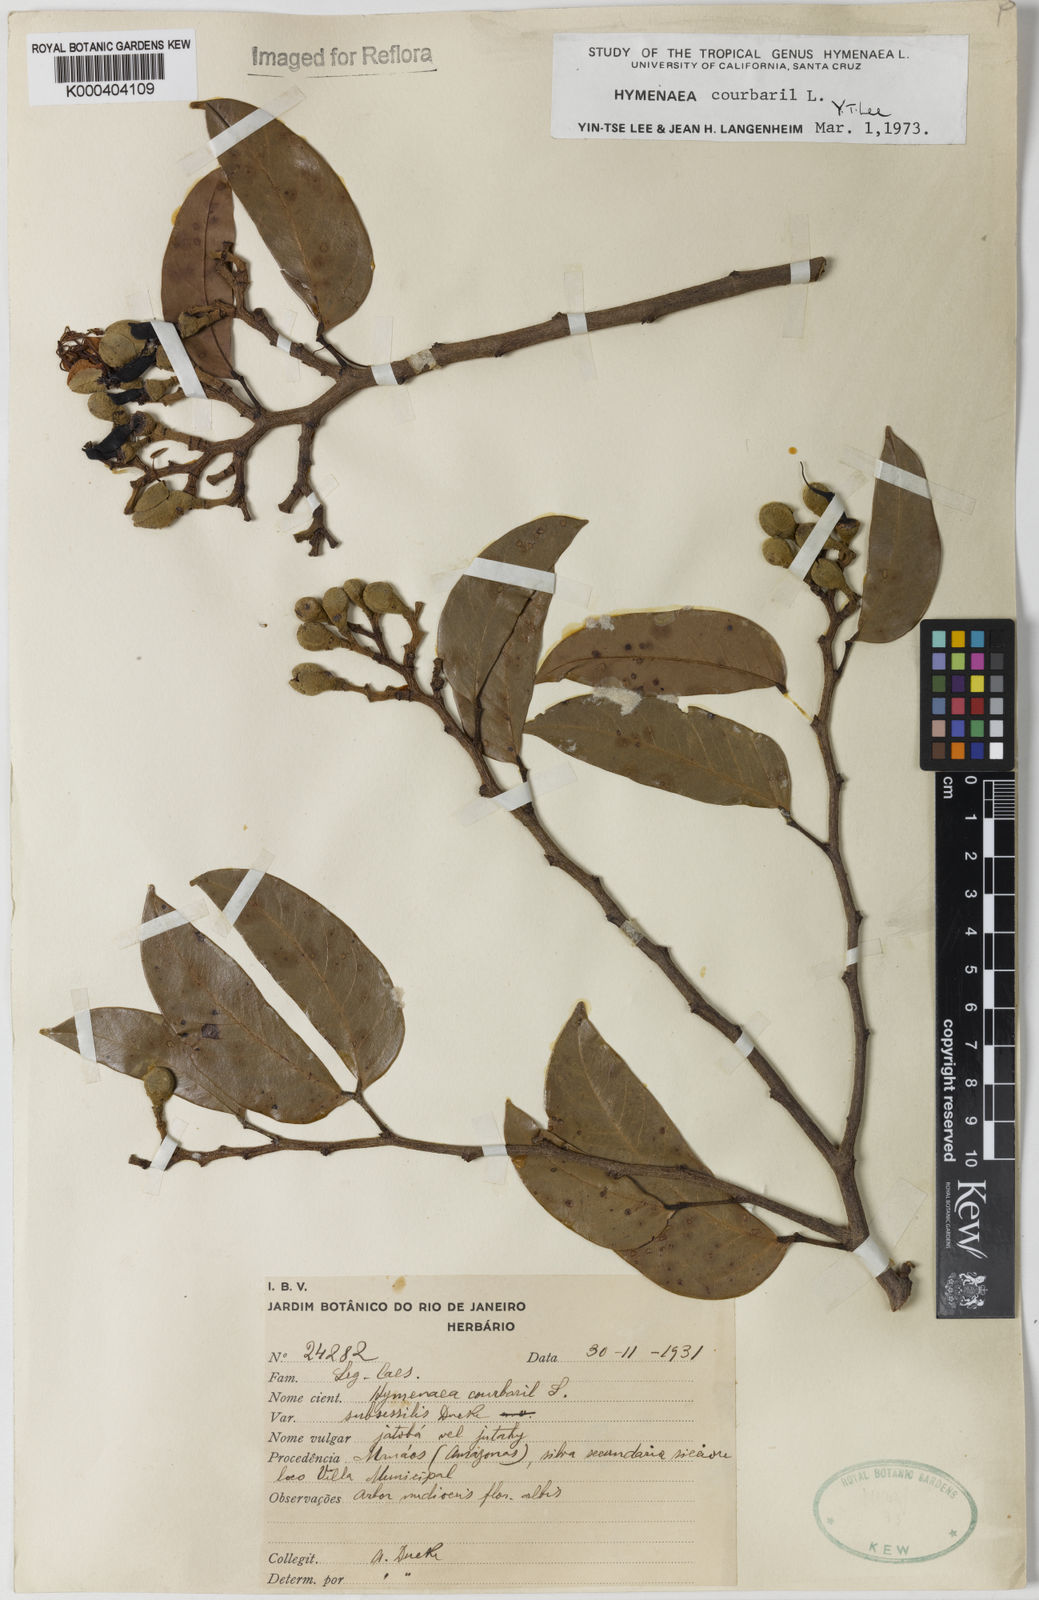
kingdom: Plantae
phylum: Tracheophyta
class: Magnoliopsida
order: Fabales
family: Fabaceae
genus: Hymenaea
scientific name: Hymenaea courbaril
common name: Brazilian copal
